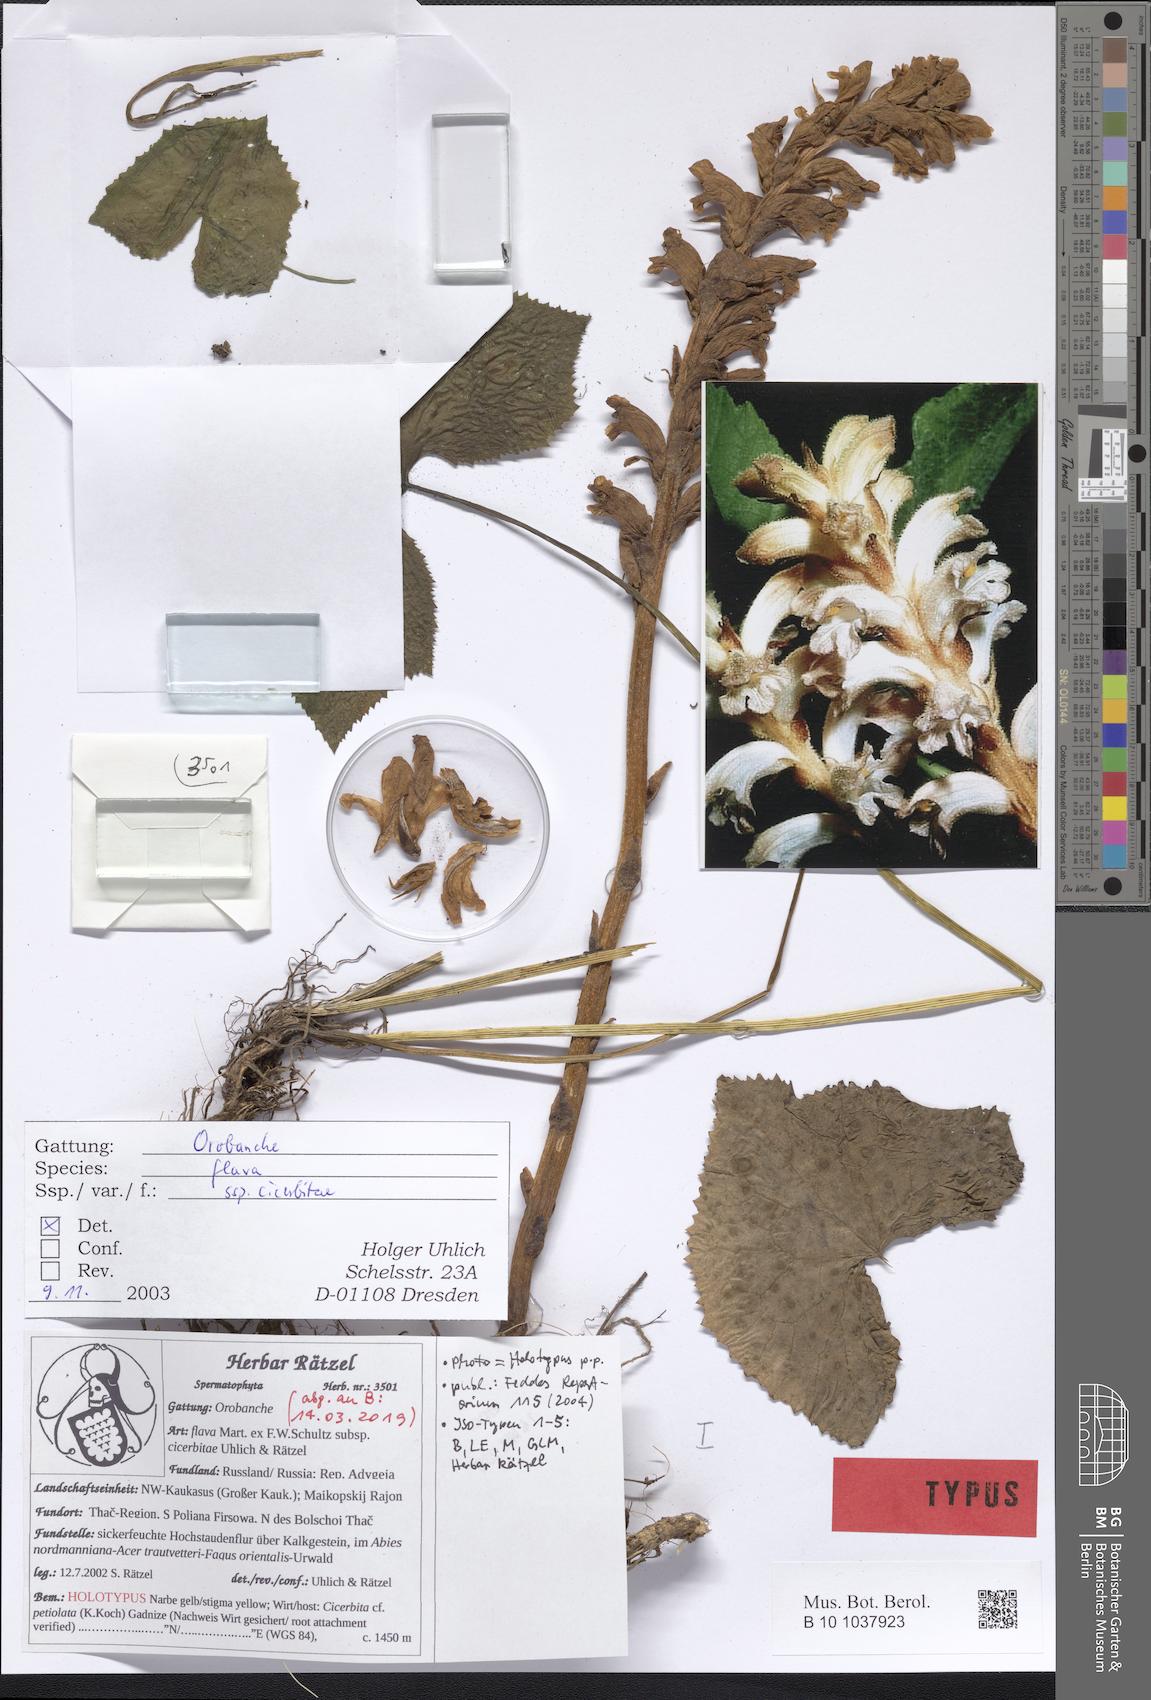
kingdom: Plantae
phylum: Tracheophyta
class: Magnoliopsida
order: Lamiales
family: Orobanchaceae
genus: Orobanche
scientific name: Orobanche flava
